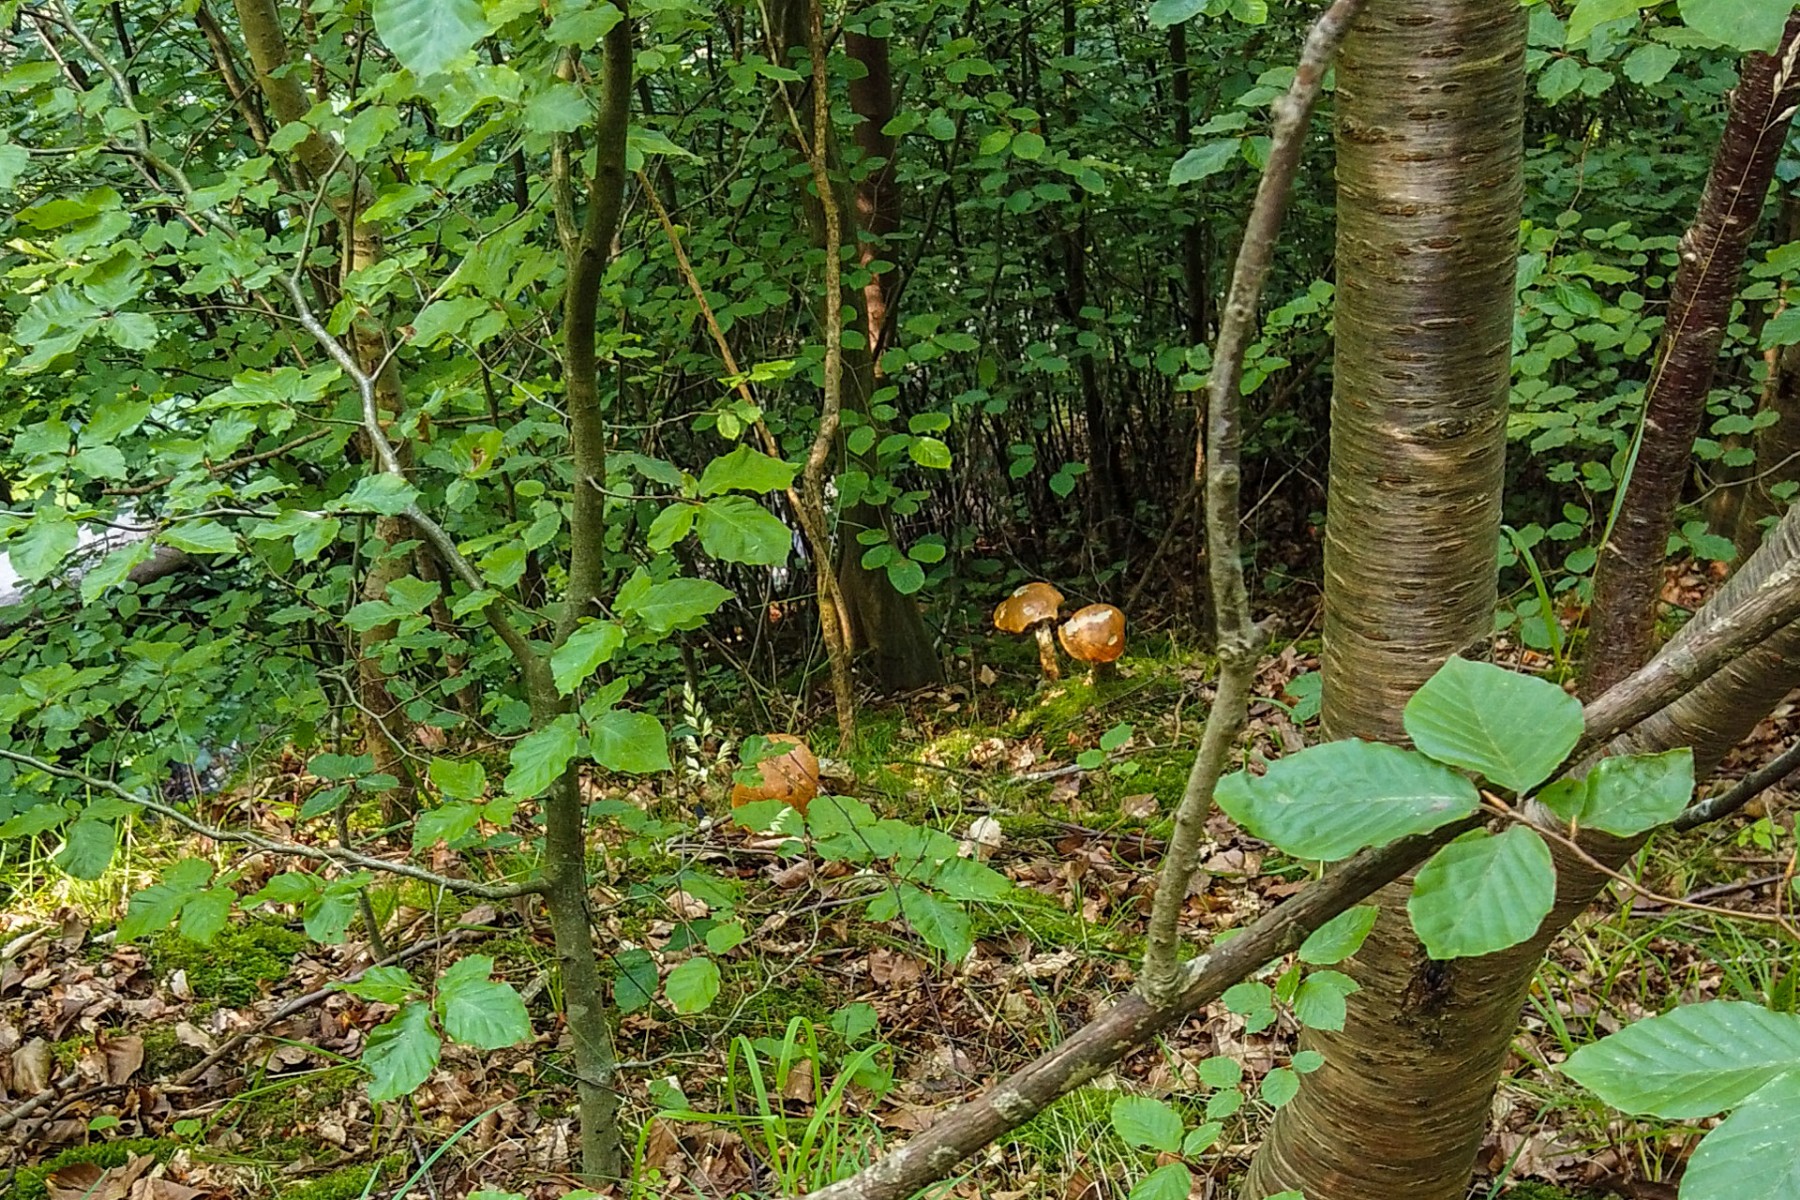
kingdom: Fungi
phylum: Basidiomycota
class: Agaricomycetes
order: Boletales
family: Boletaceae
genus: Leccinum
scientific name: Leccinum versipelle
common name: orange skælrørhat
